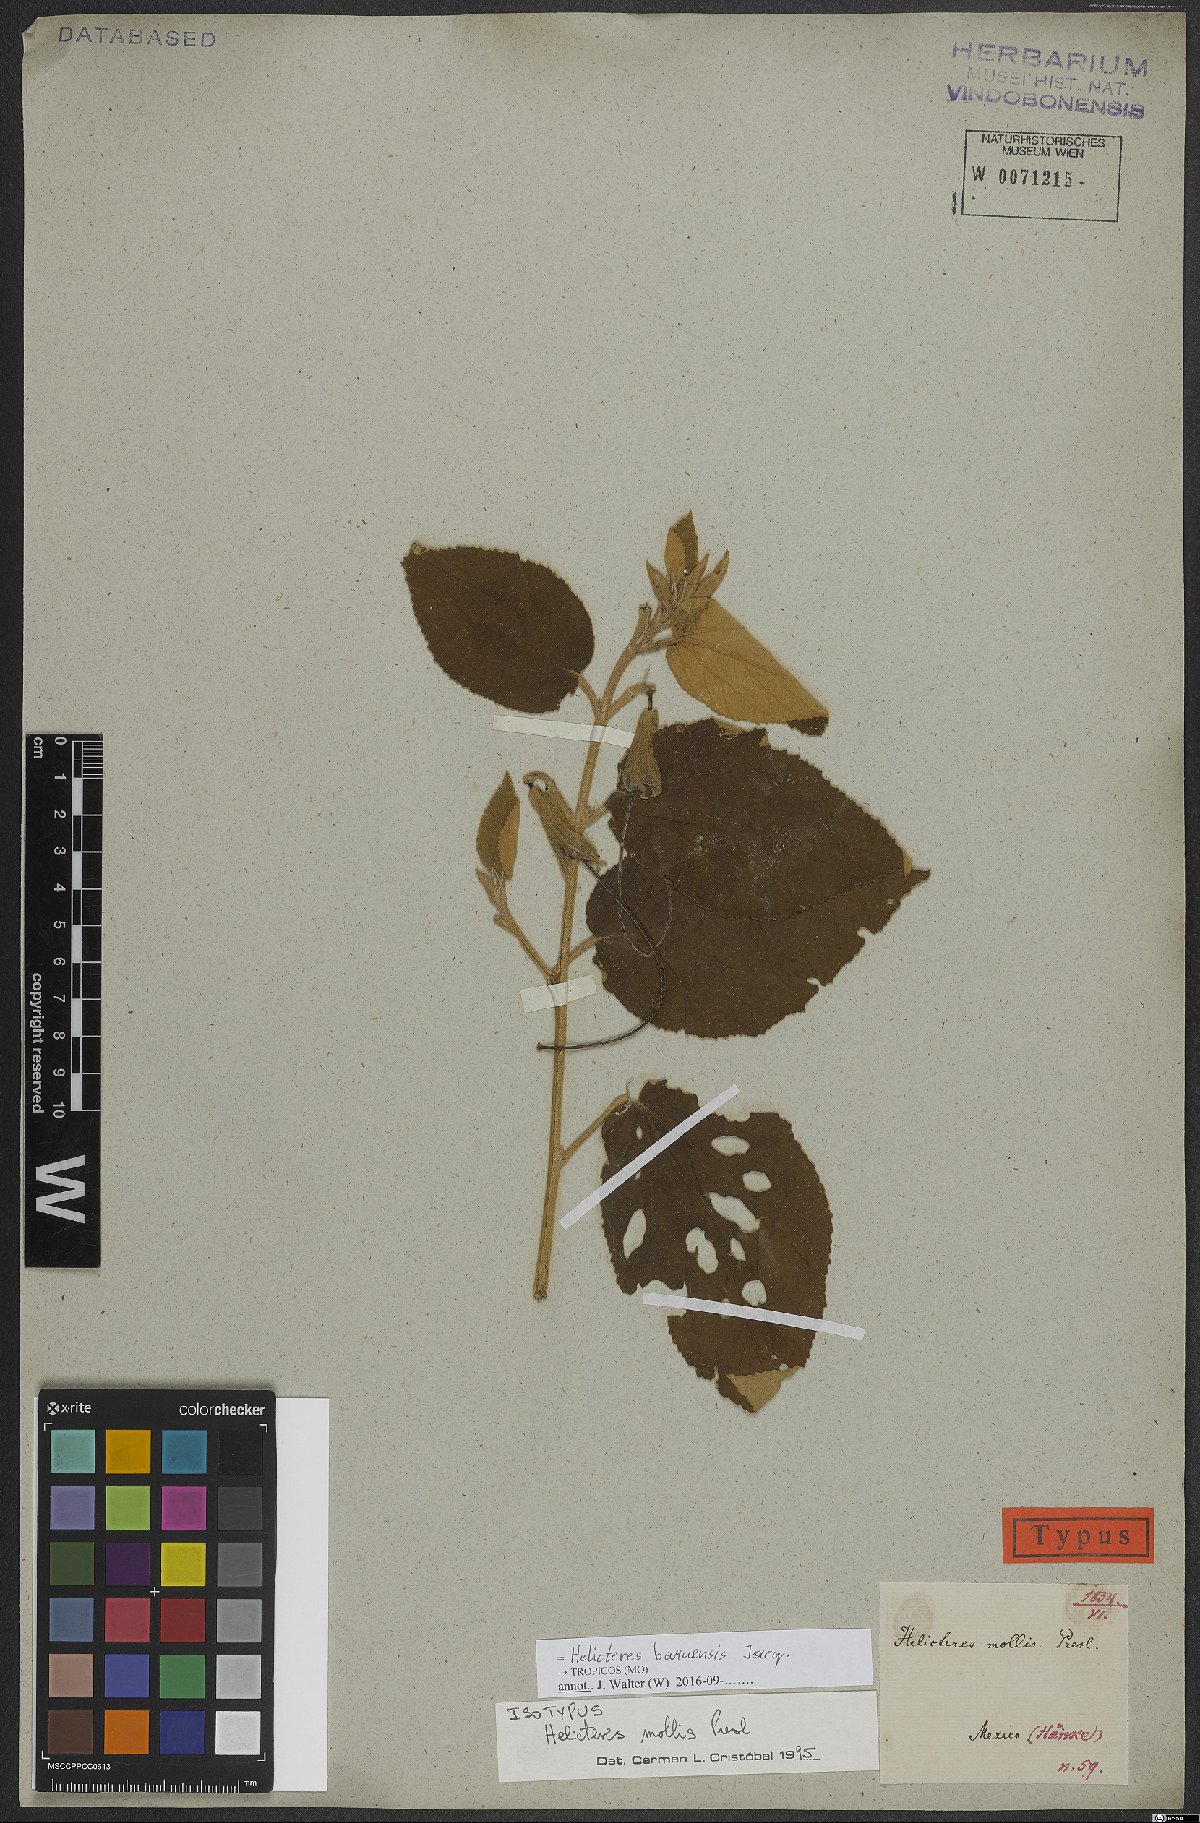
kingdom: Plantae
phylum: Tracheophyta
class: Magnoliopsida
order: Malvales
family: Malvaceae
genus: Helicteres
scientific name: Helicteres baruensis
